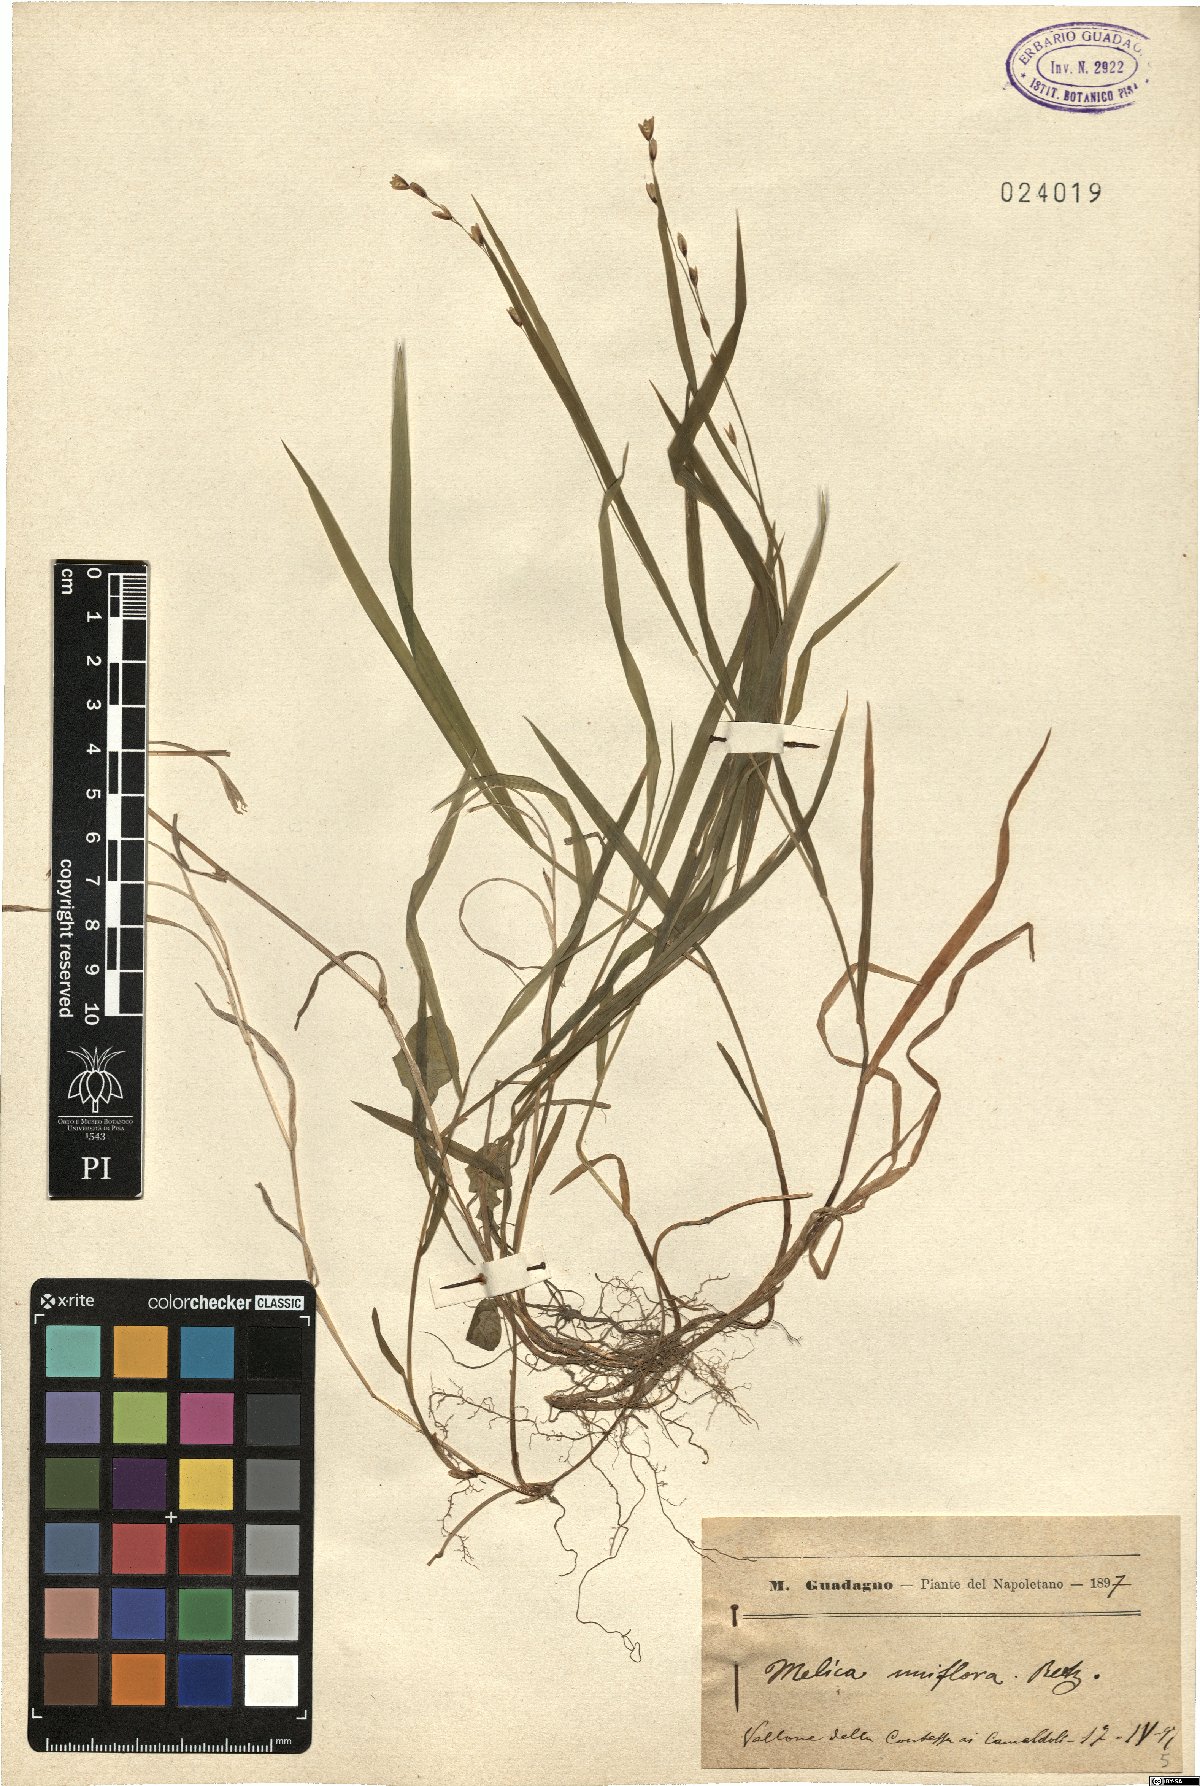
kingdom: Plantae
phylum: Tracheophyta
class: Liliopsida
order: Poales
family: Poaceae
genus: Melica
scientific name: Melica uniflora
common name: Wood melick
